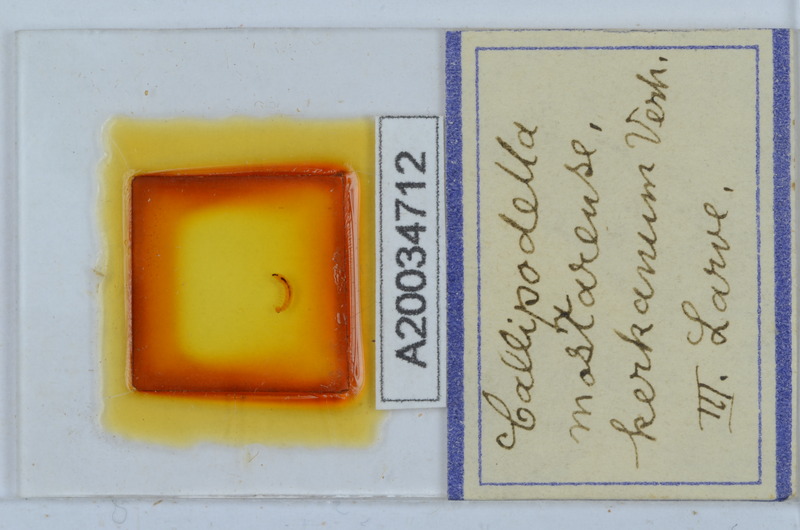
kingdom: Animalia
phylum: Arthropoda
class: Diplopoda
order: Callipodida
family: Schizopetalidae
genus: Callipodella
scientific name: Callipodella mostarensis
